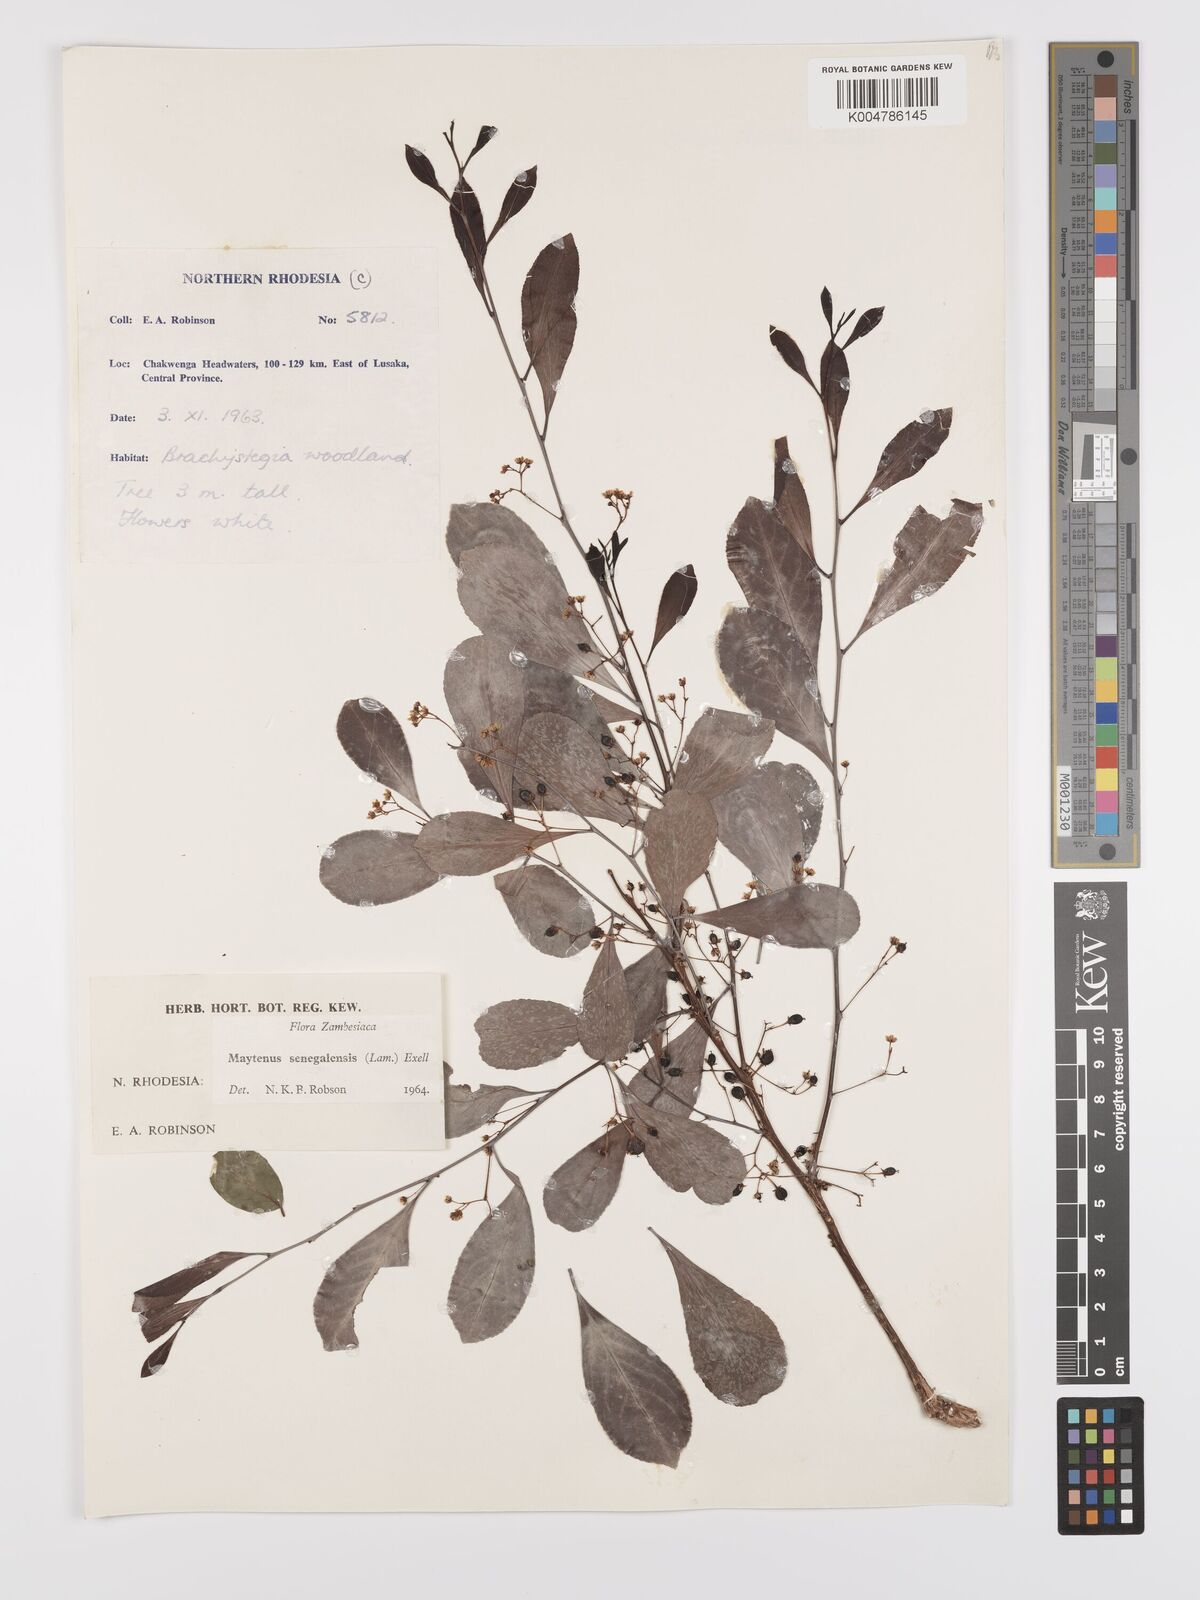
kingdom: Plantae
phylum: Tracheophyta
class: Magnoliopsida
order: Celastrales
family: Celastraceae
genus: Gymnosporia
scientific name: Gymnosporia senegalensis
